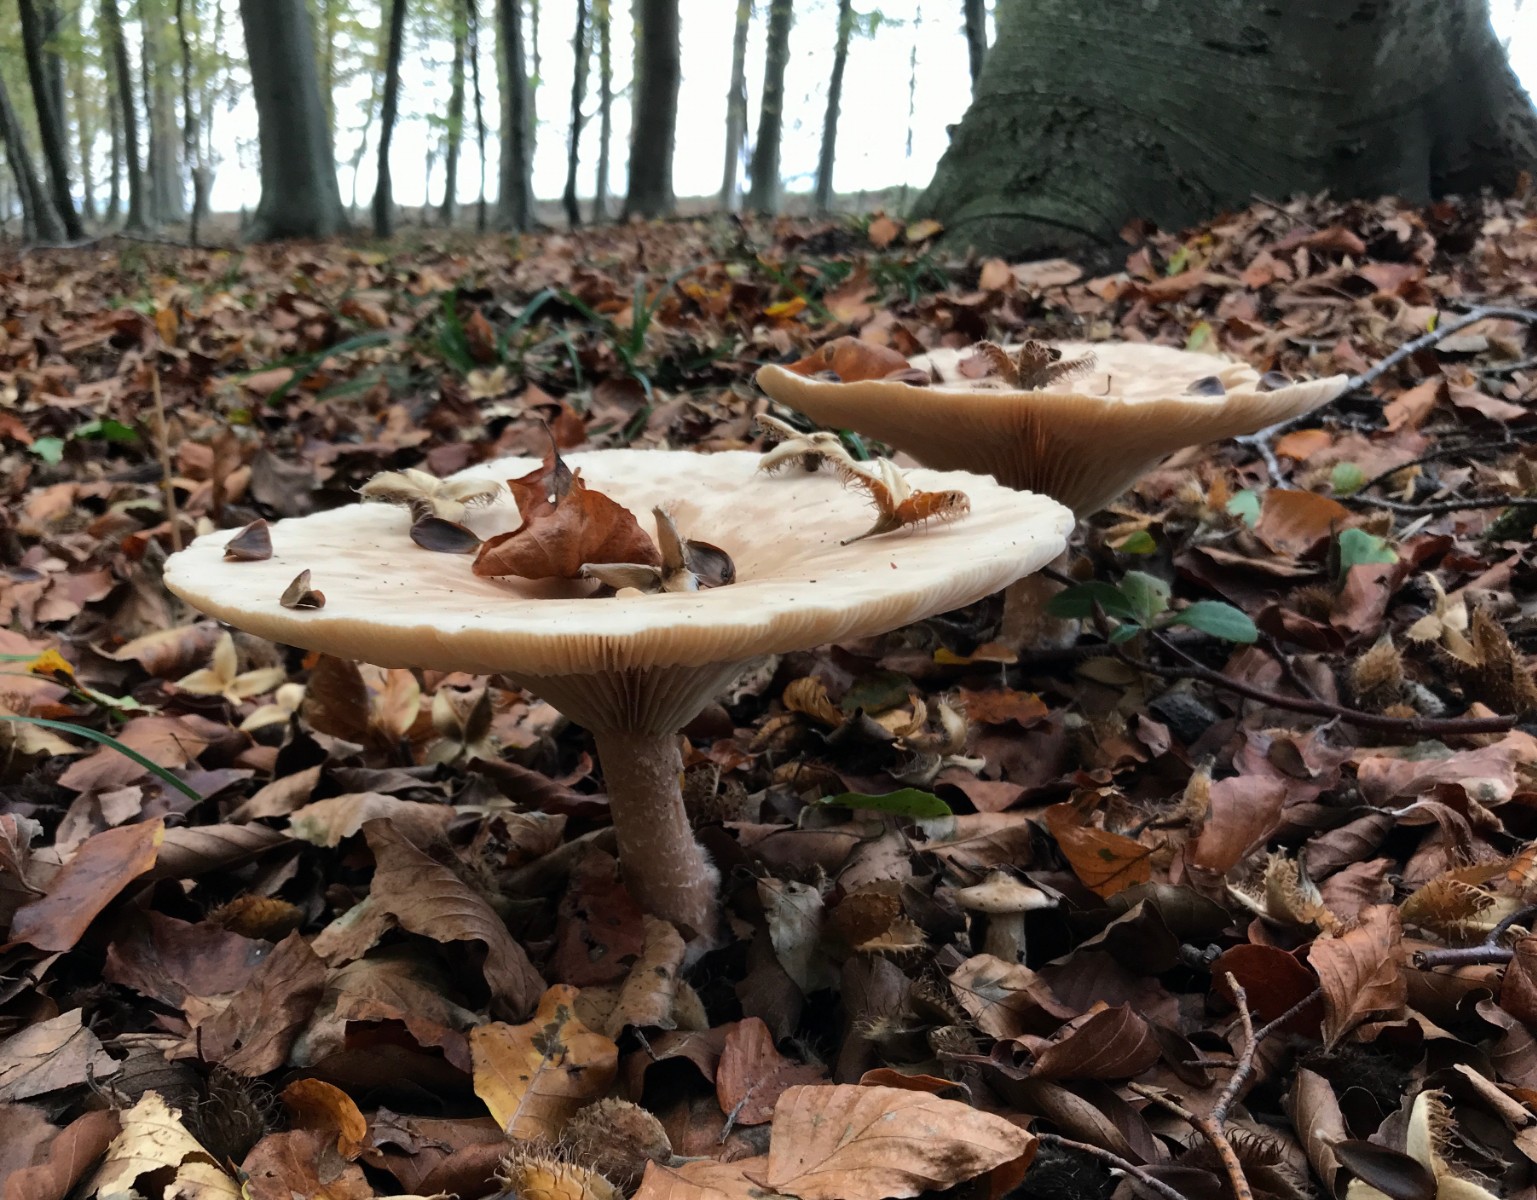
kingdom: Fungi
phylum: Basidiomycota
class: Agaricomycetes
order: Agaricales
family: Tricholomataceae
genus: Infundibulicybe
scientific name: Infundibulicybe geotropa
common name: stor tragthat
